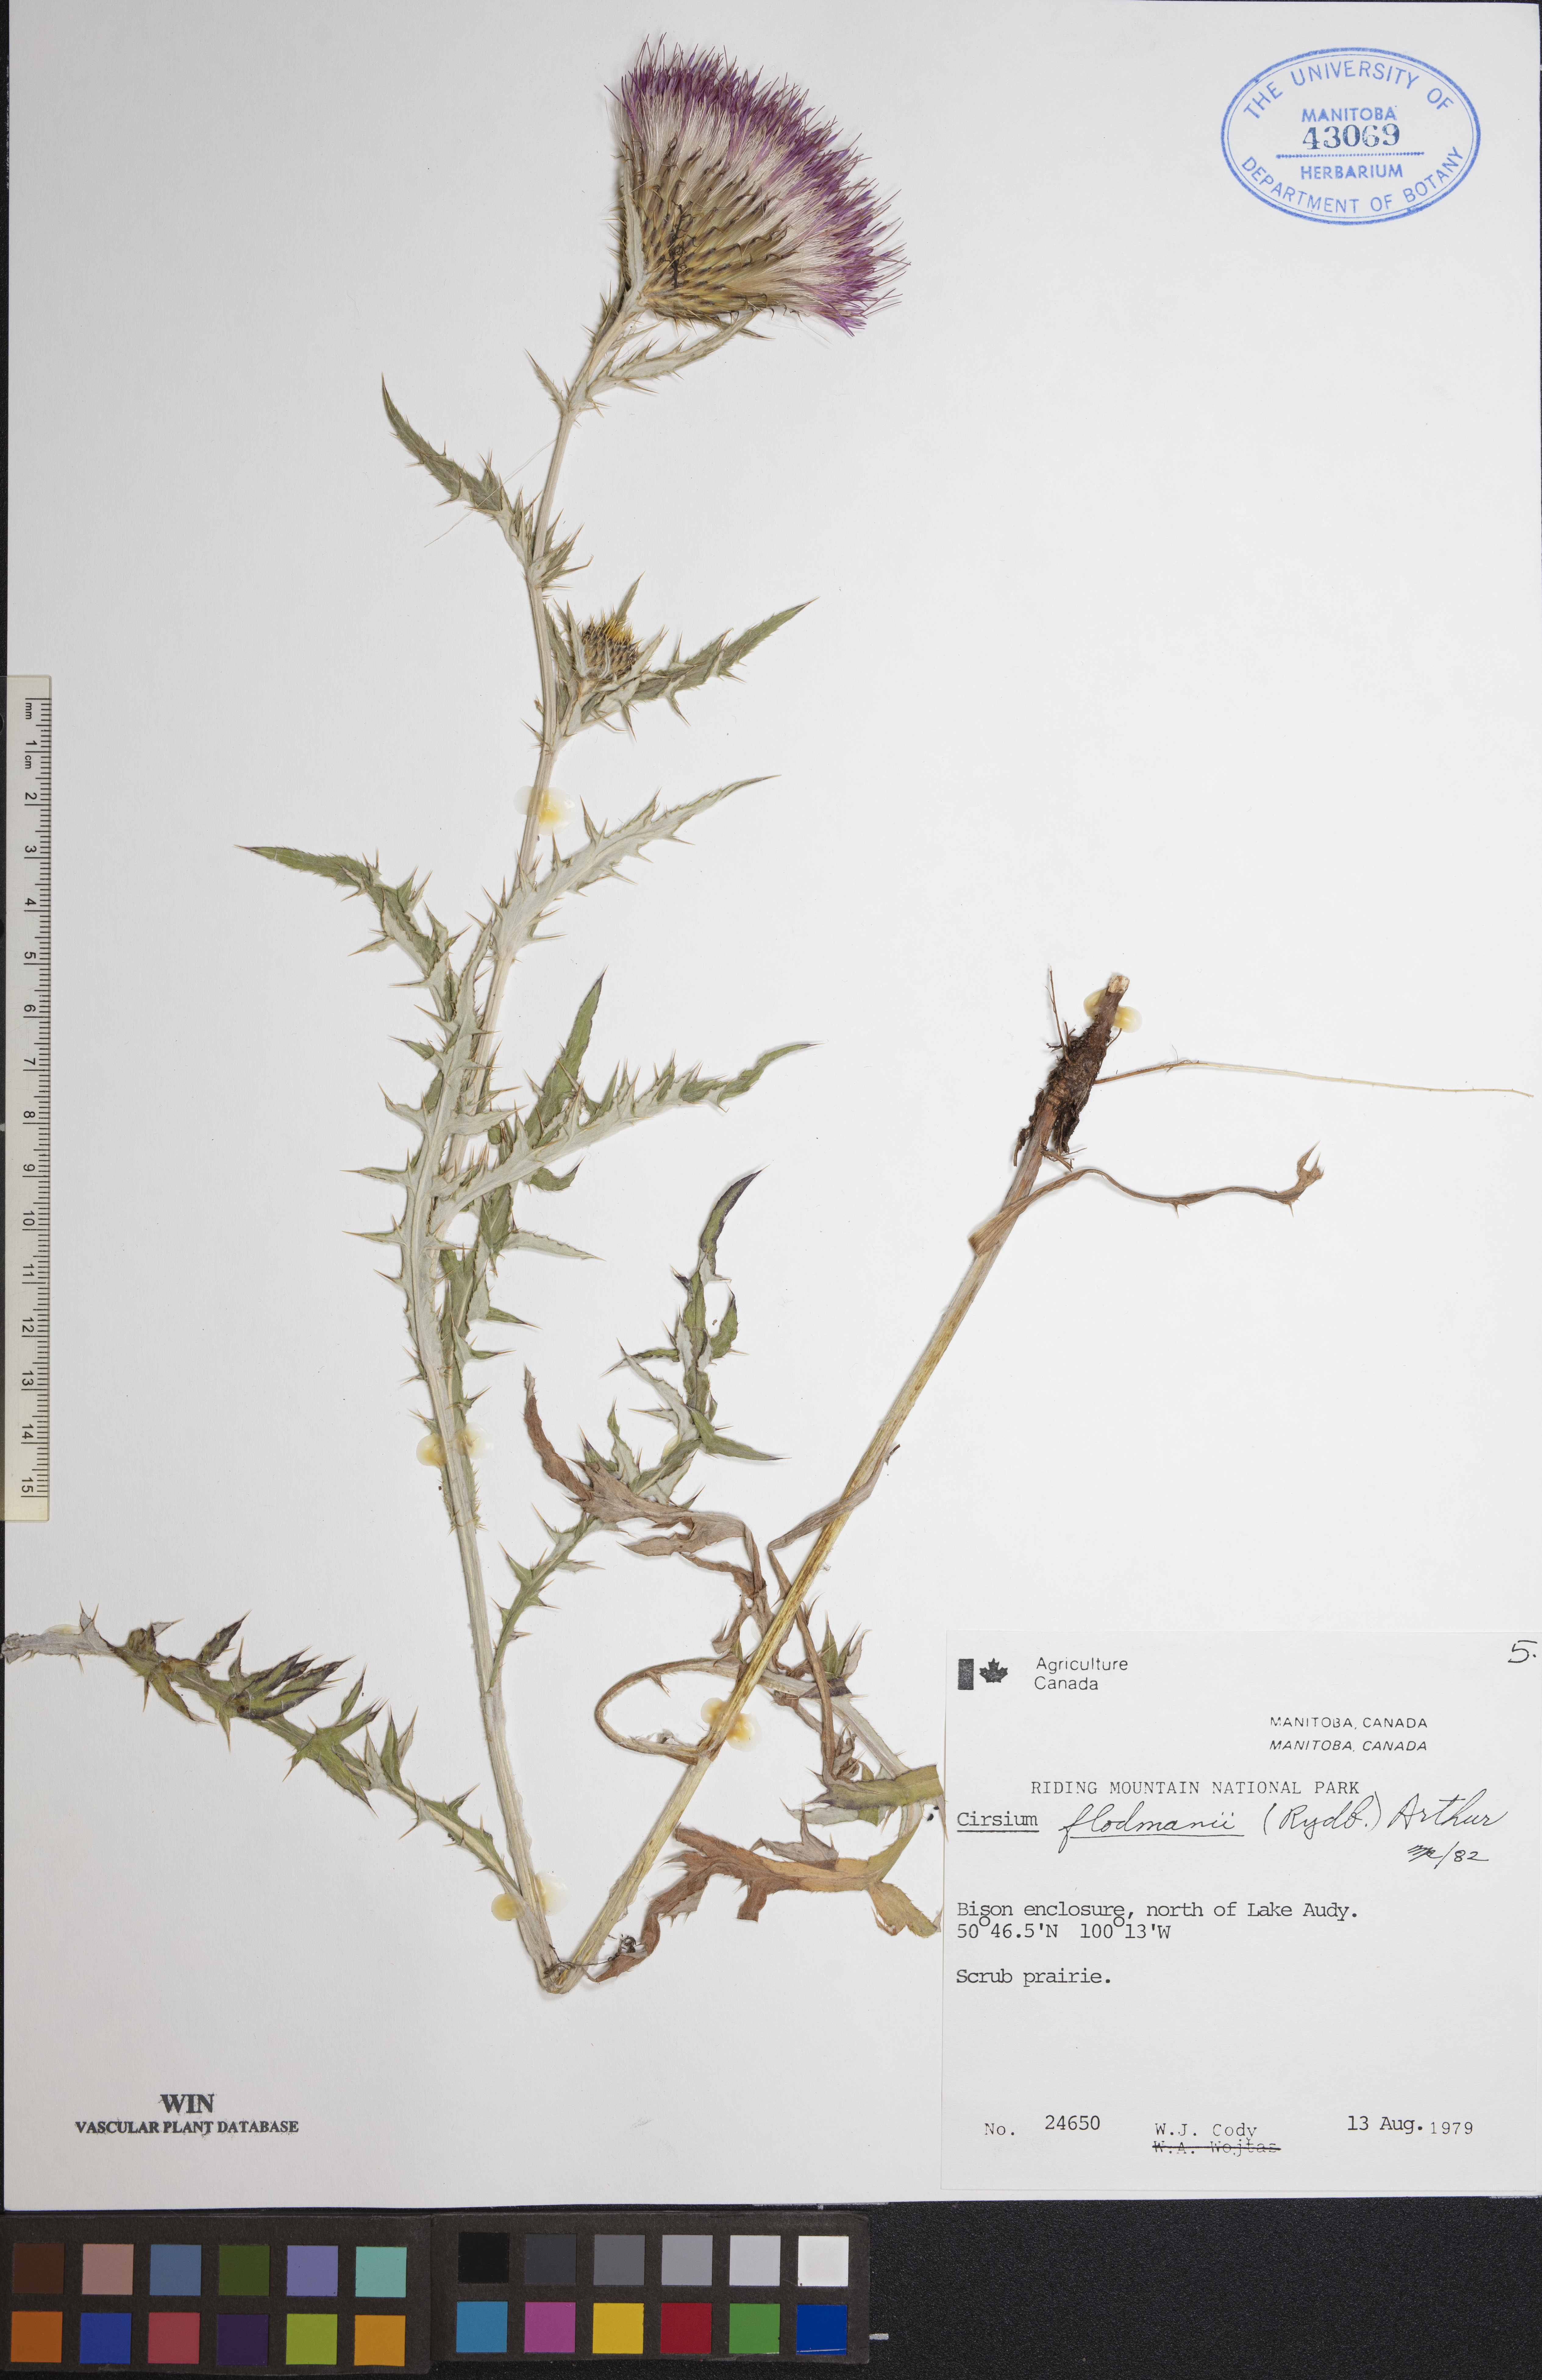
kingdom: Plantae
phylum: Tracheophyta
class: Magnoliopsida
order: Asterales
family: Asteraceae
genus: Cirsium
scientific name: Cirsium flodmanii
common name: Flodman's thistle
